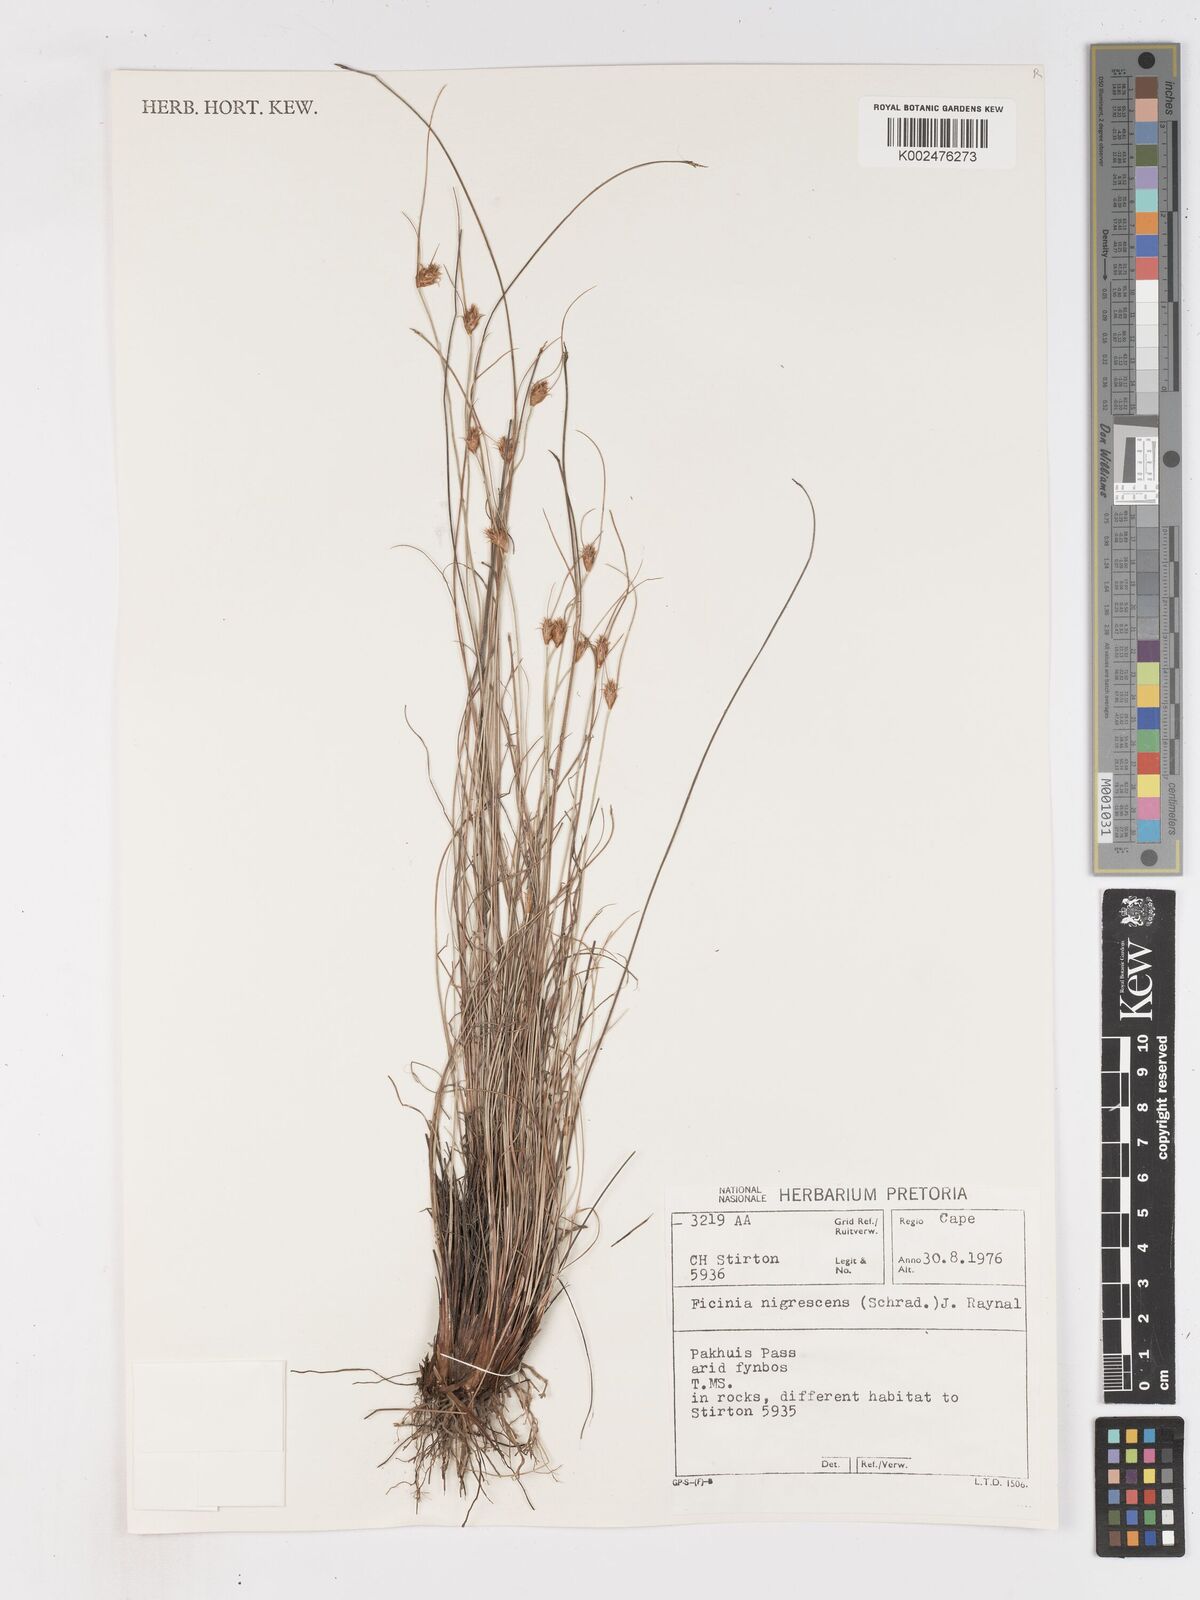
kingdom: Plantae
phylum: Tracheophyta
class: Liliopsida
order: Poales
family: Cyperaceae
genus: Ficinia
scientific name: Ficinia nigrescens
